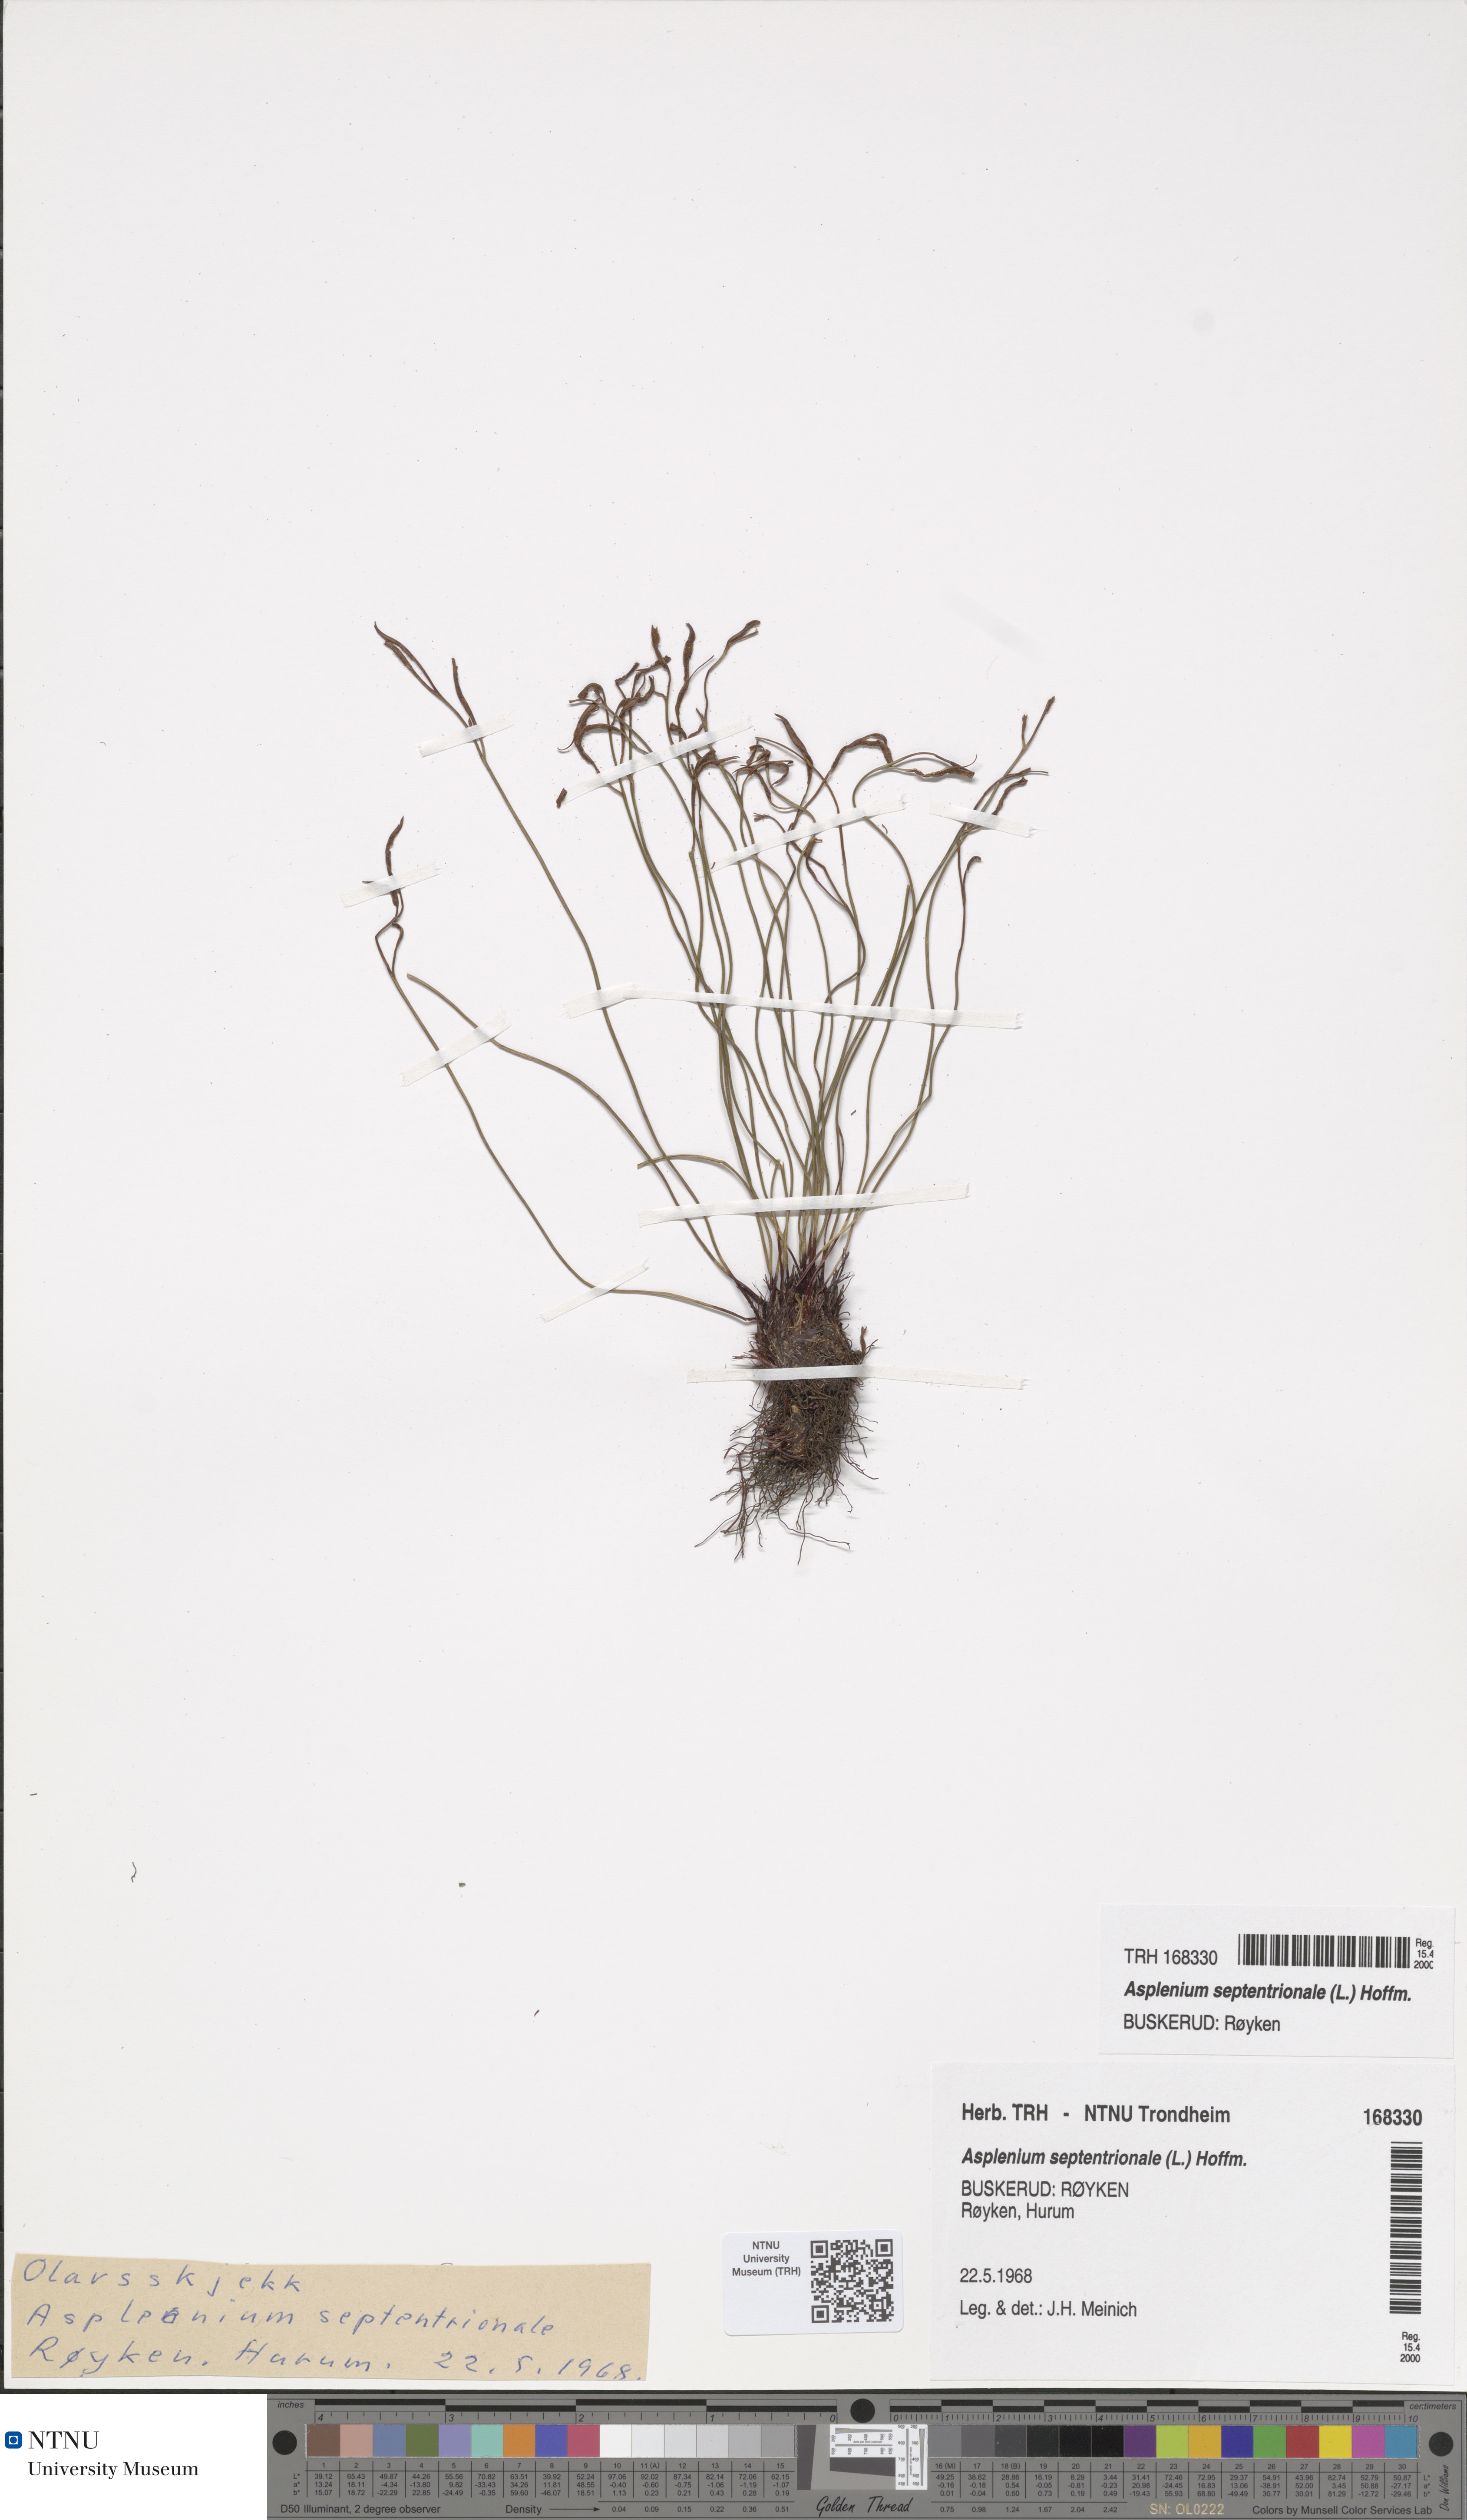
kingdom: Plantae
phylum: Tracheophyta
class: Polypodiopsida
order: Polypodiales
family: Aspleniaceae
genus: Asplenium
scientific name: Asplenium septentrionale
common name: Forked spleenwort
